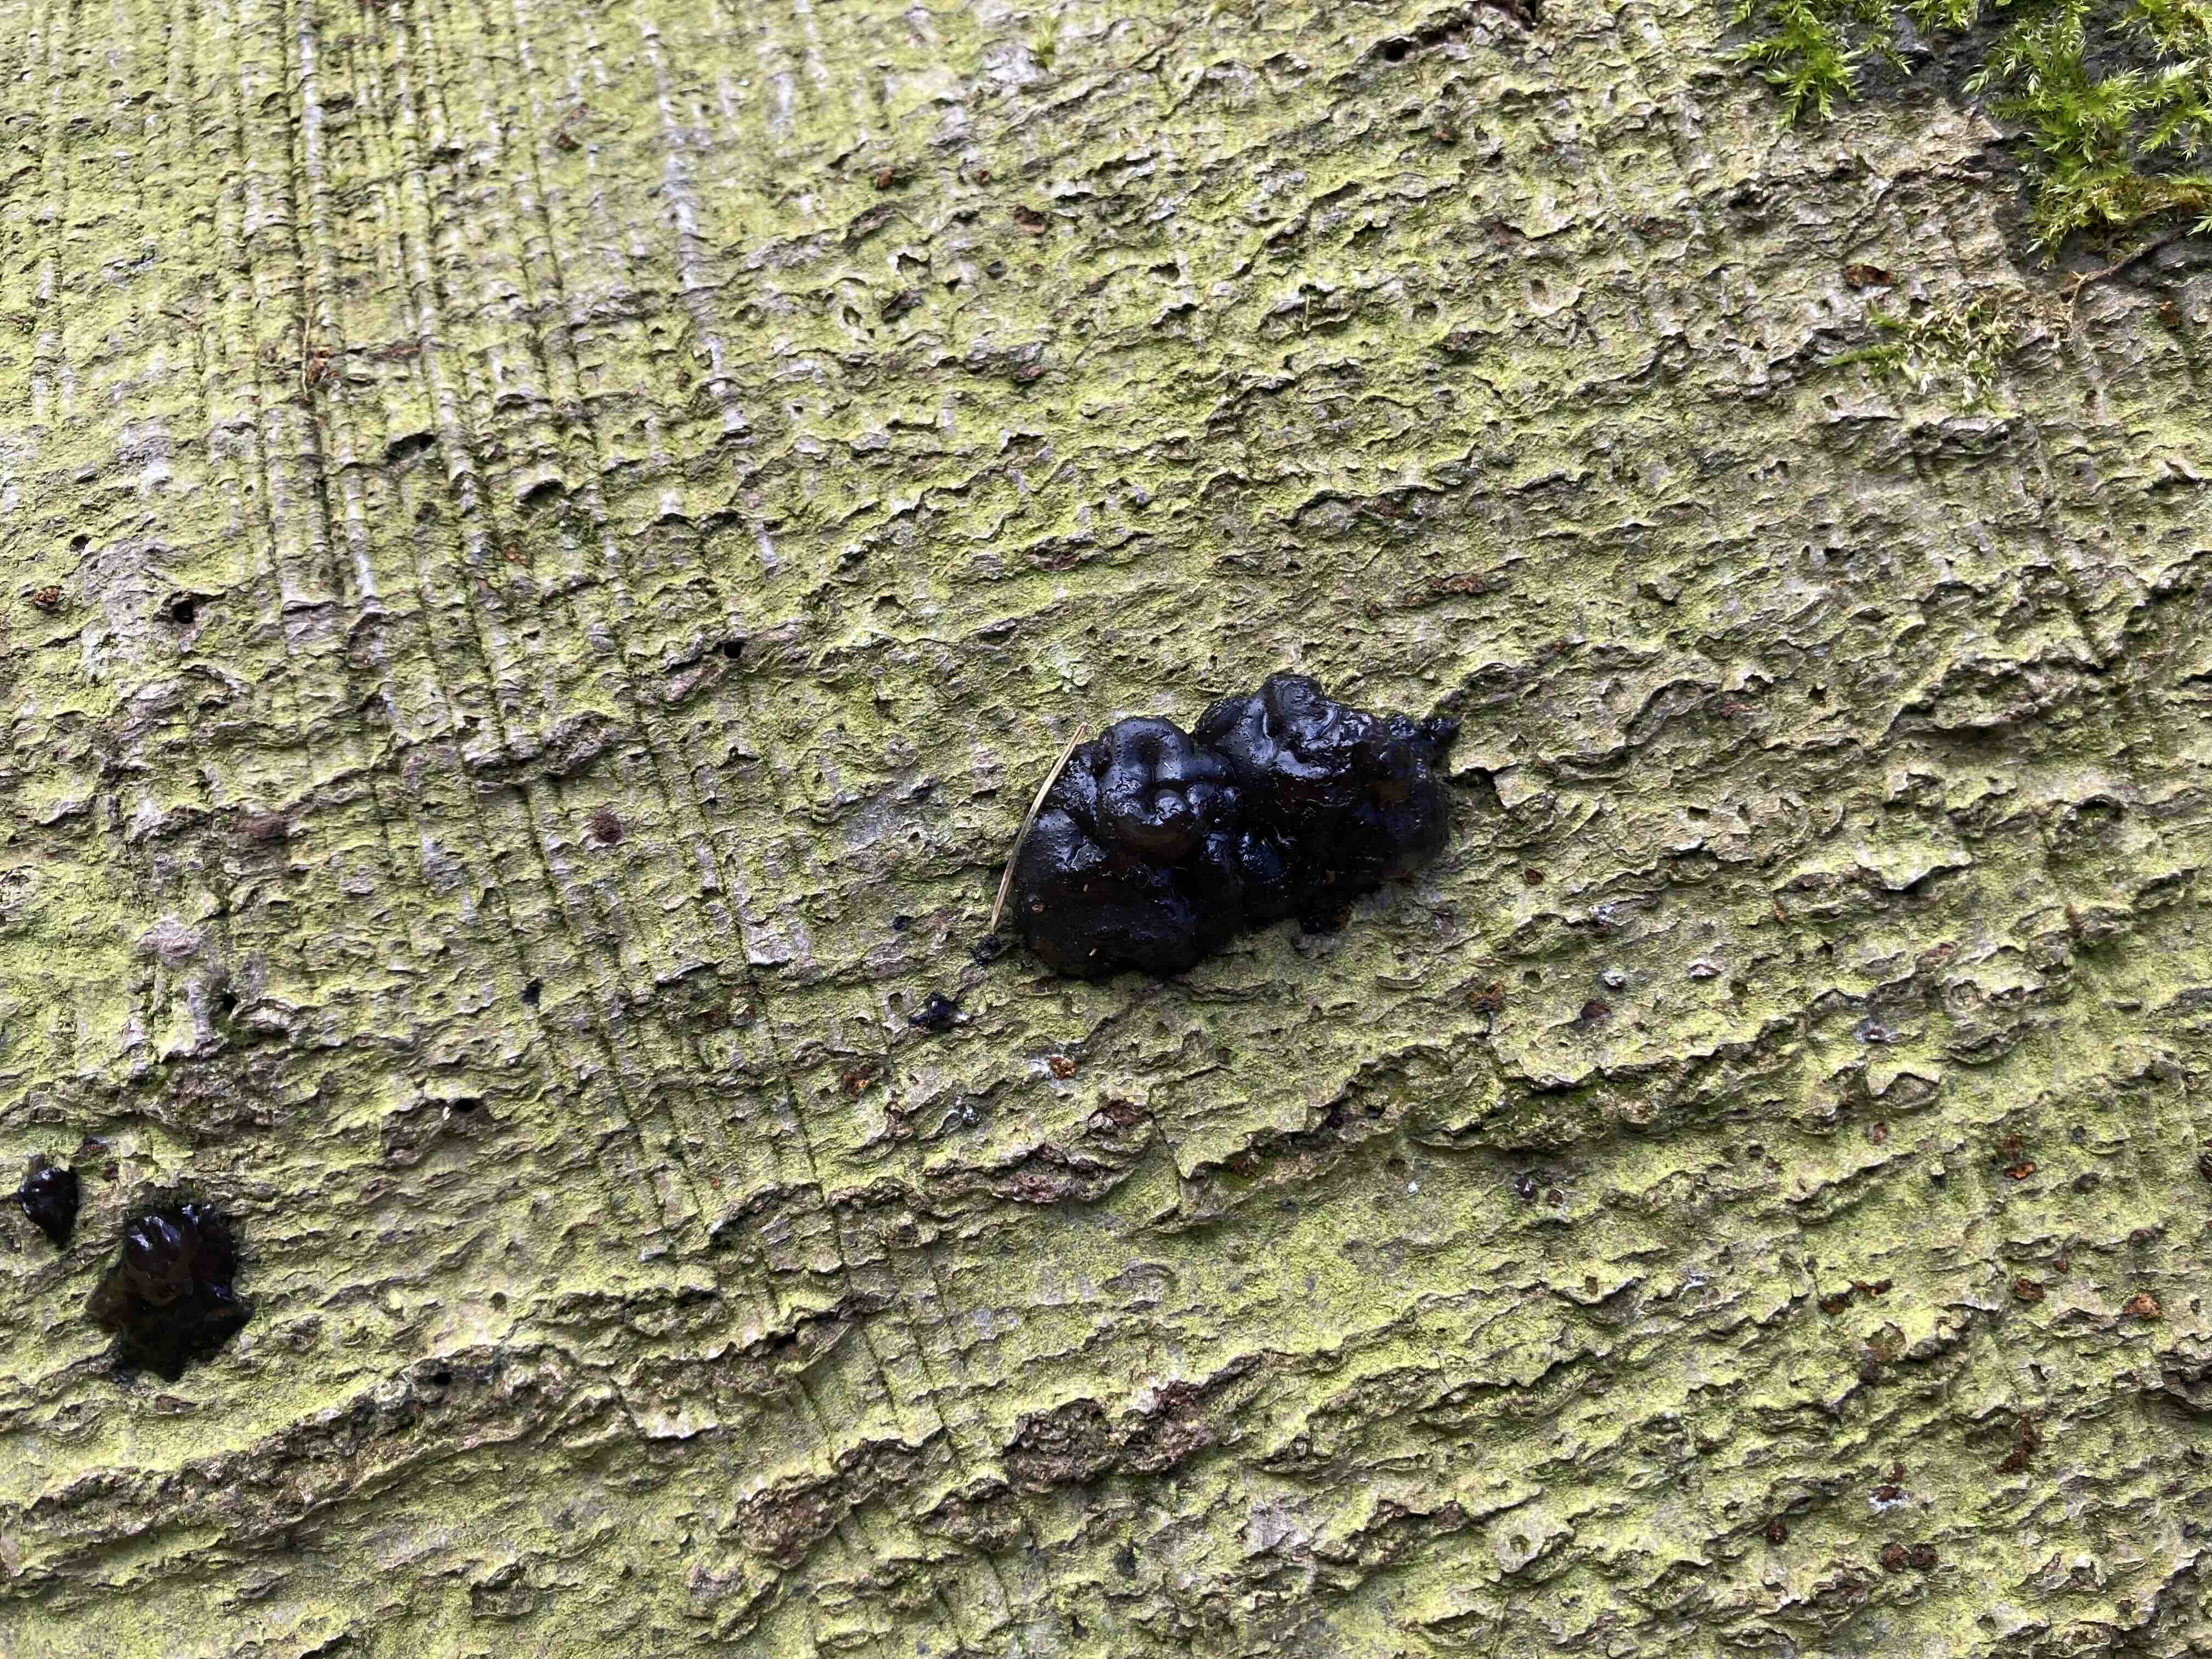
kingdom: Fungi
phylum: Basidiomycota
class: Tremellomycetes
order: Tremellales
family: Exidiaceae
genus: Exidia
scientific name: Exidia
